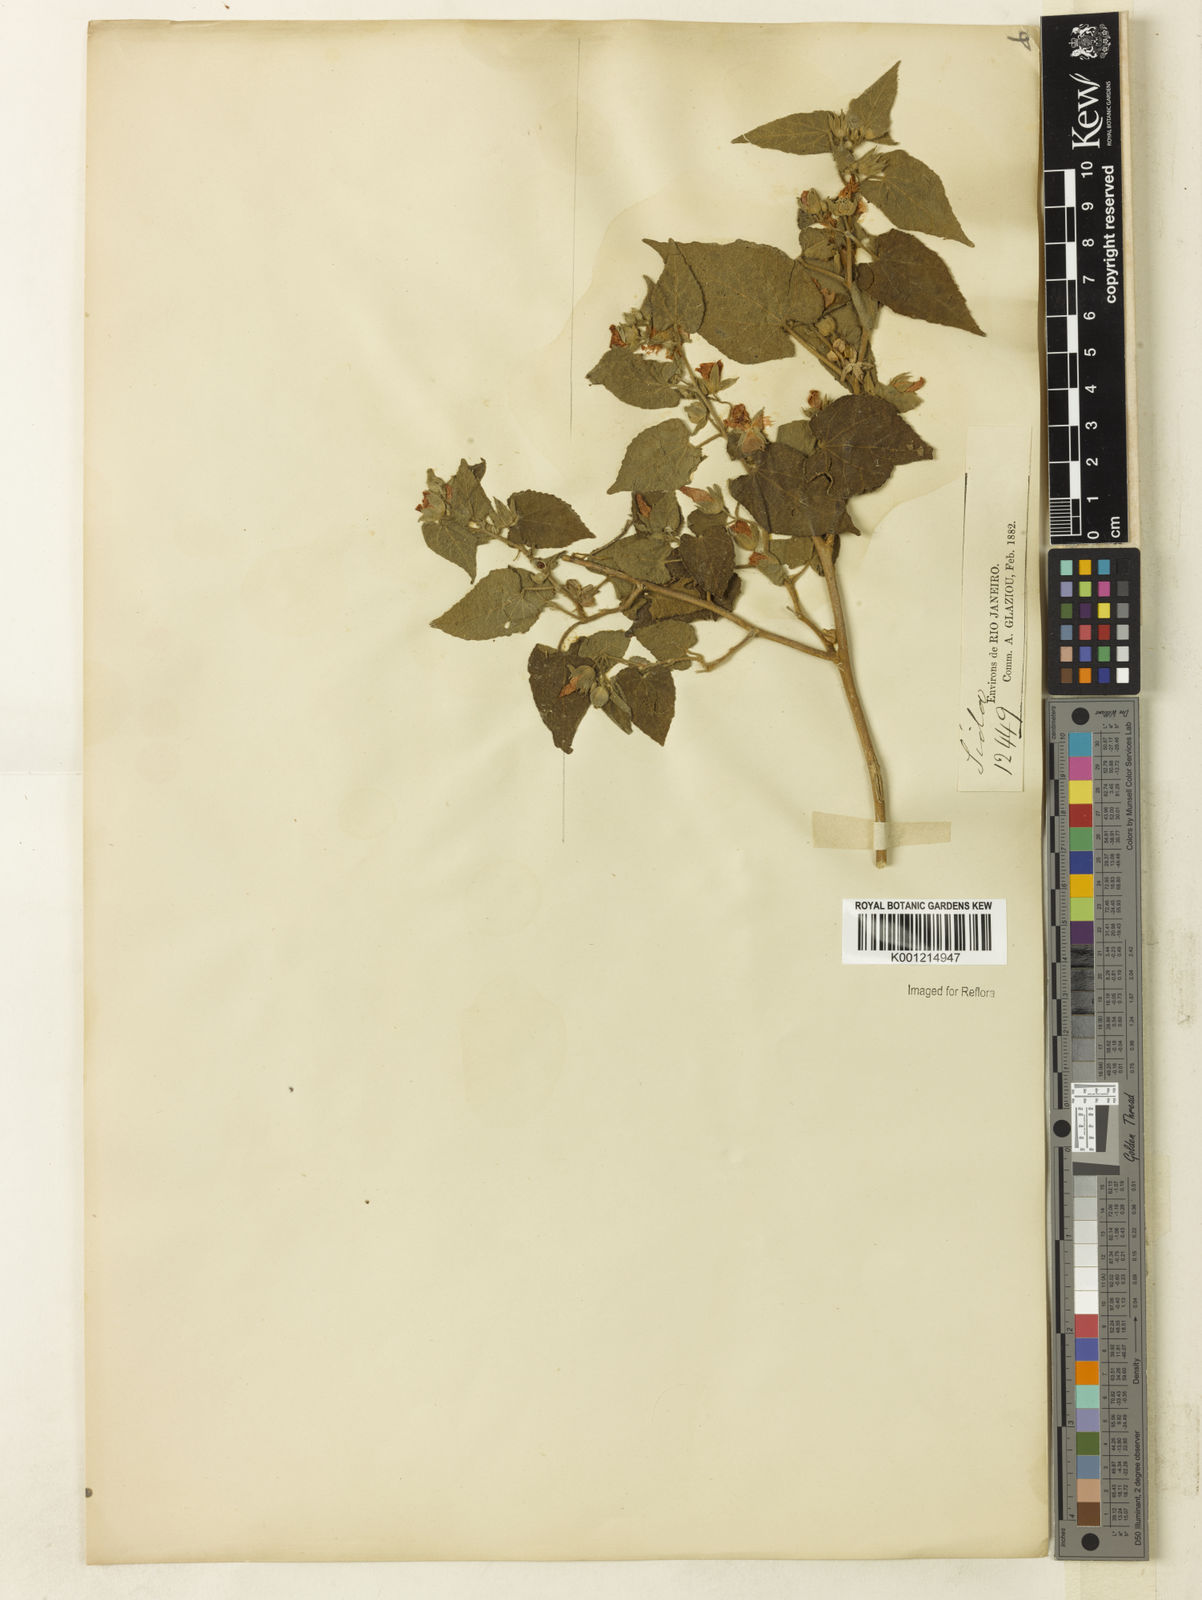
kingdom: Plantae
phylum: Tracheophyta
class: Magnoliopsida
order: Malvales
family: Malvaceae
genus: Abutilon
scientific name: Abutilon
